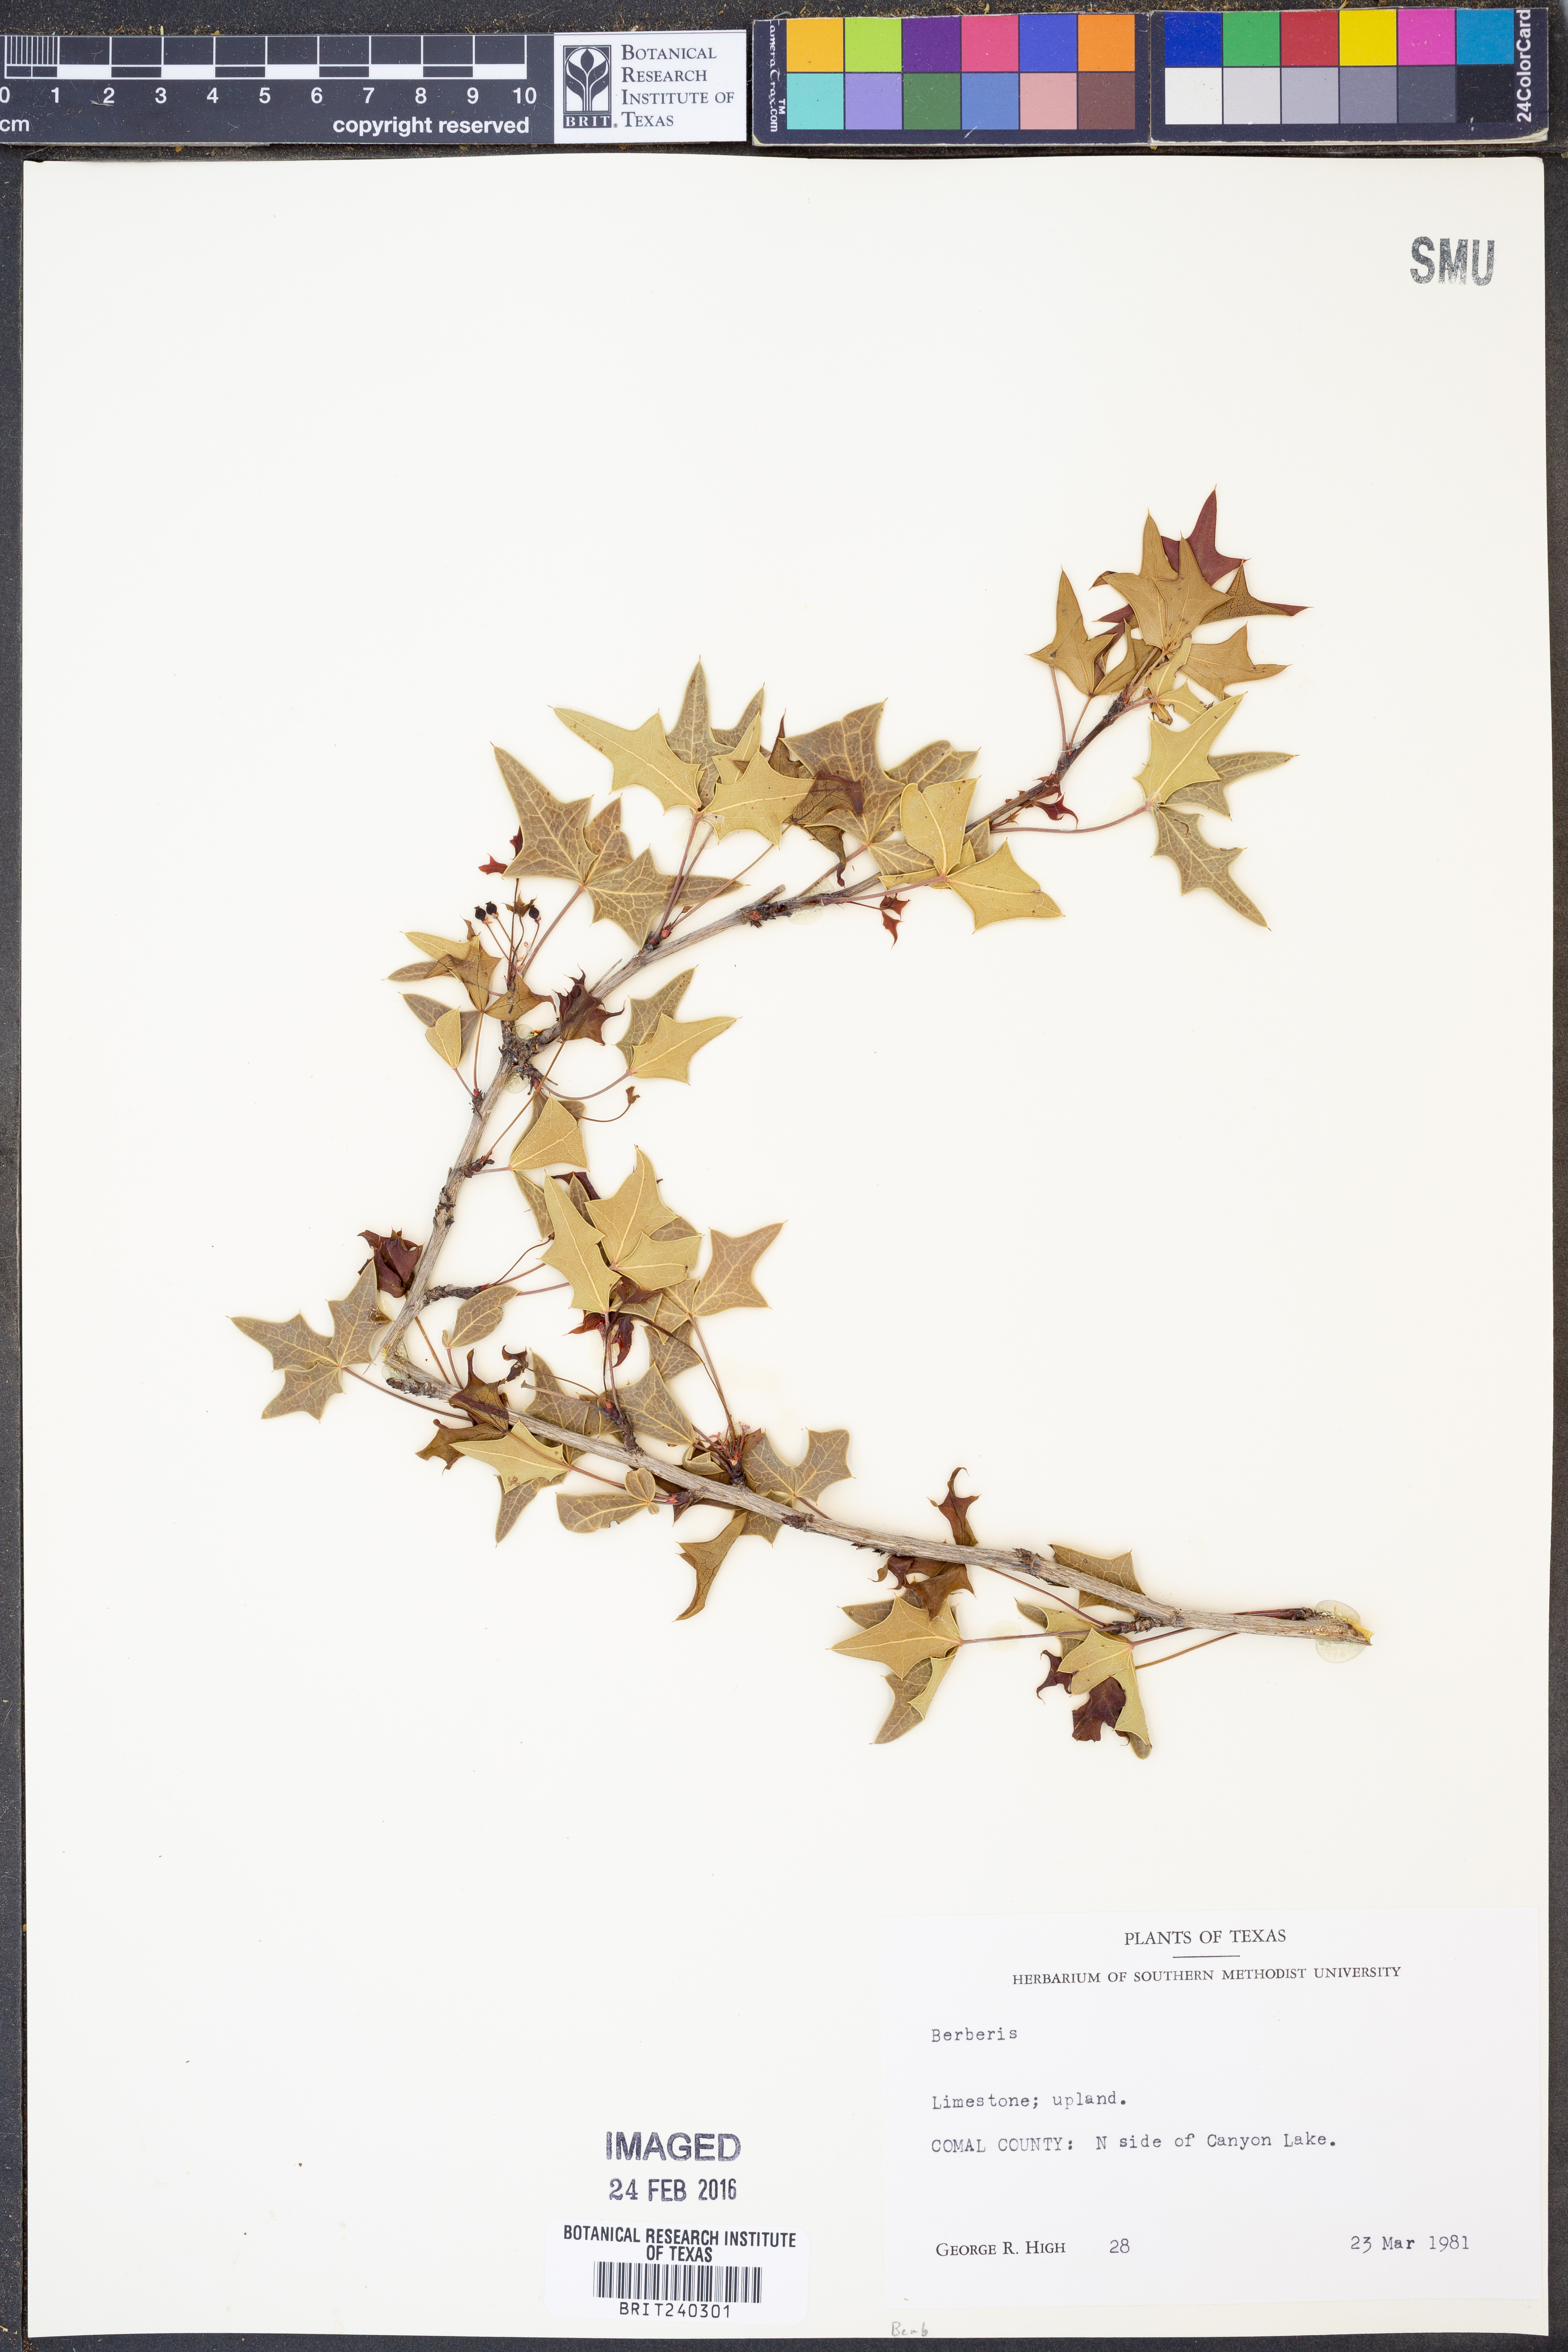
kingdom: Plantae
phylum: Tracheophyta
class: Magnoliopsida
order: Ranunculales
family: Berberidaceae
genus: Berberis
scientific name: Berberis
